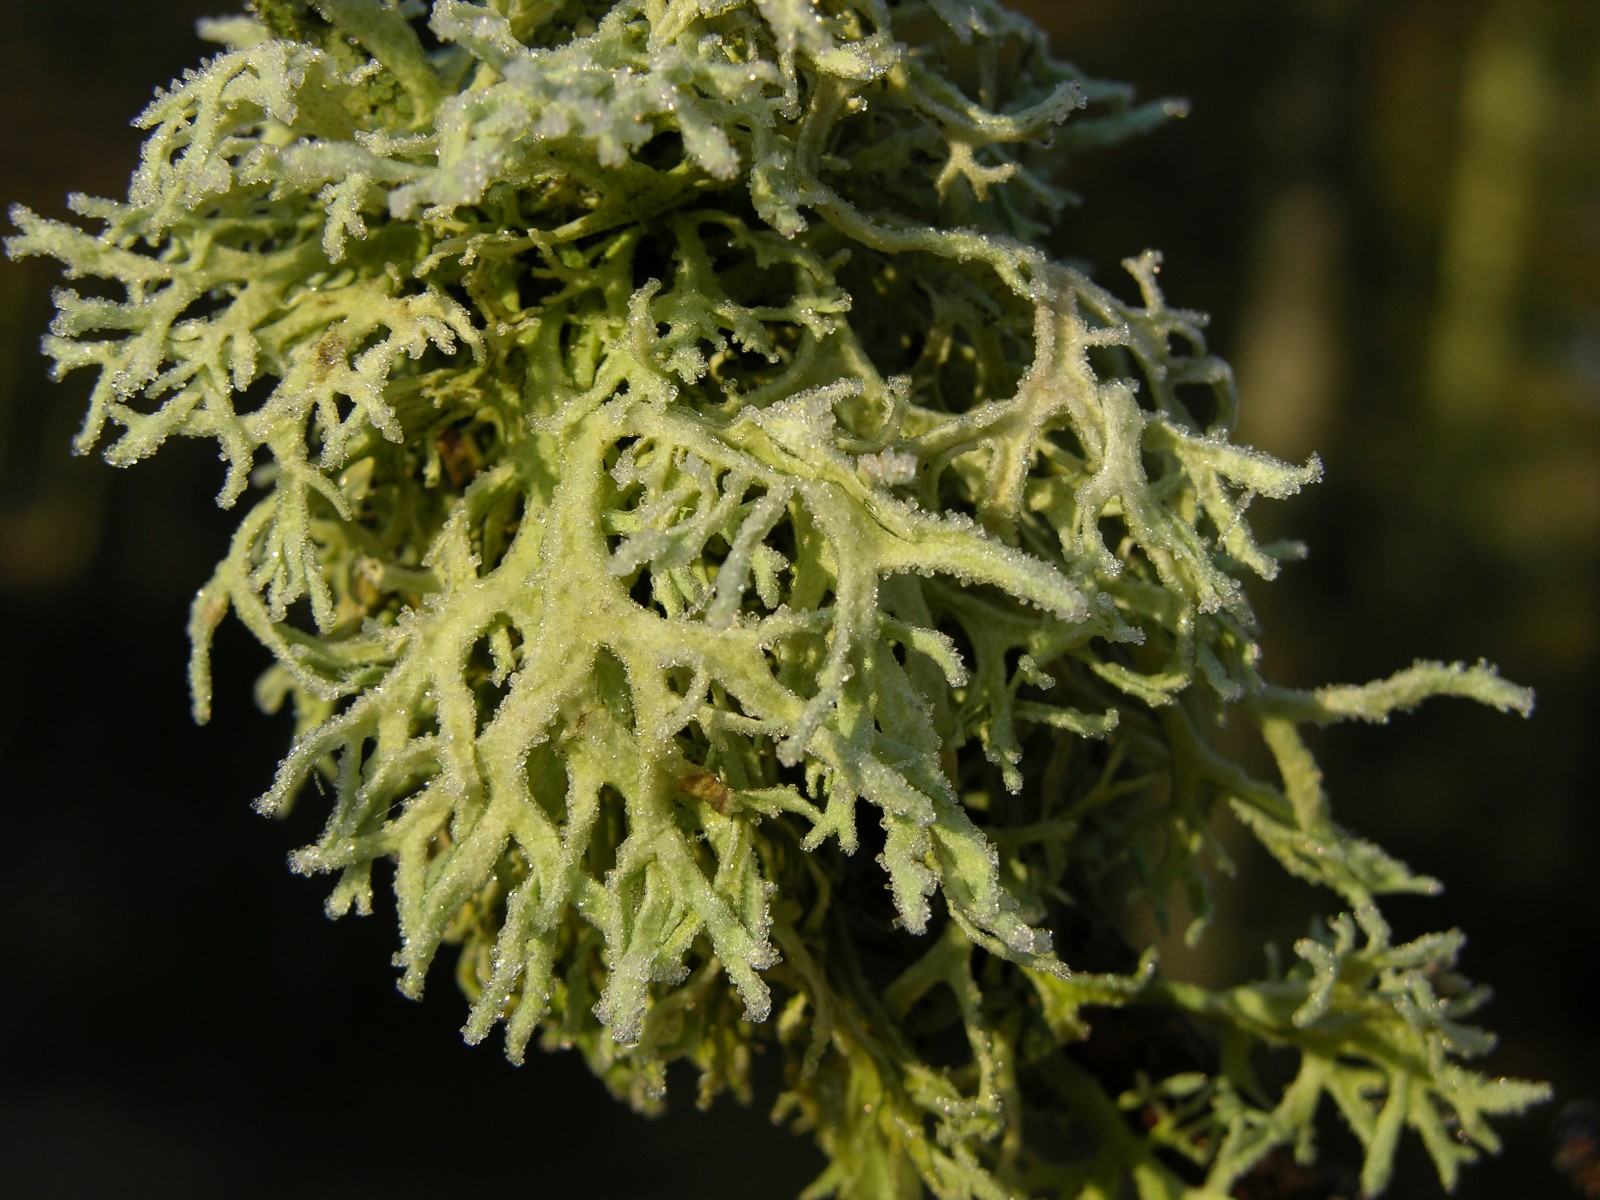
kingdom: Fungi
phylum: Ascomycota
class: Lecanoromycetes
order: Lecanorales
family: Parmeliaceae
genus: Evernia
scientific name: Evernia prunastri
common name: almindelig slåenlav
